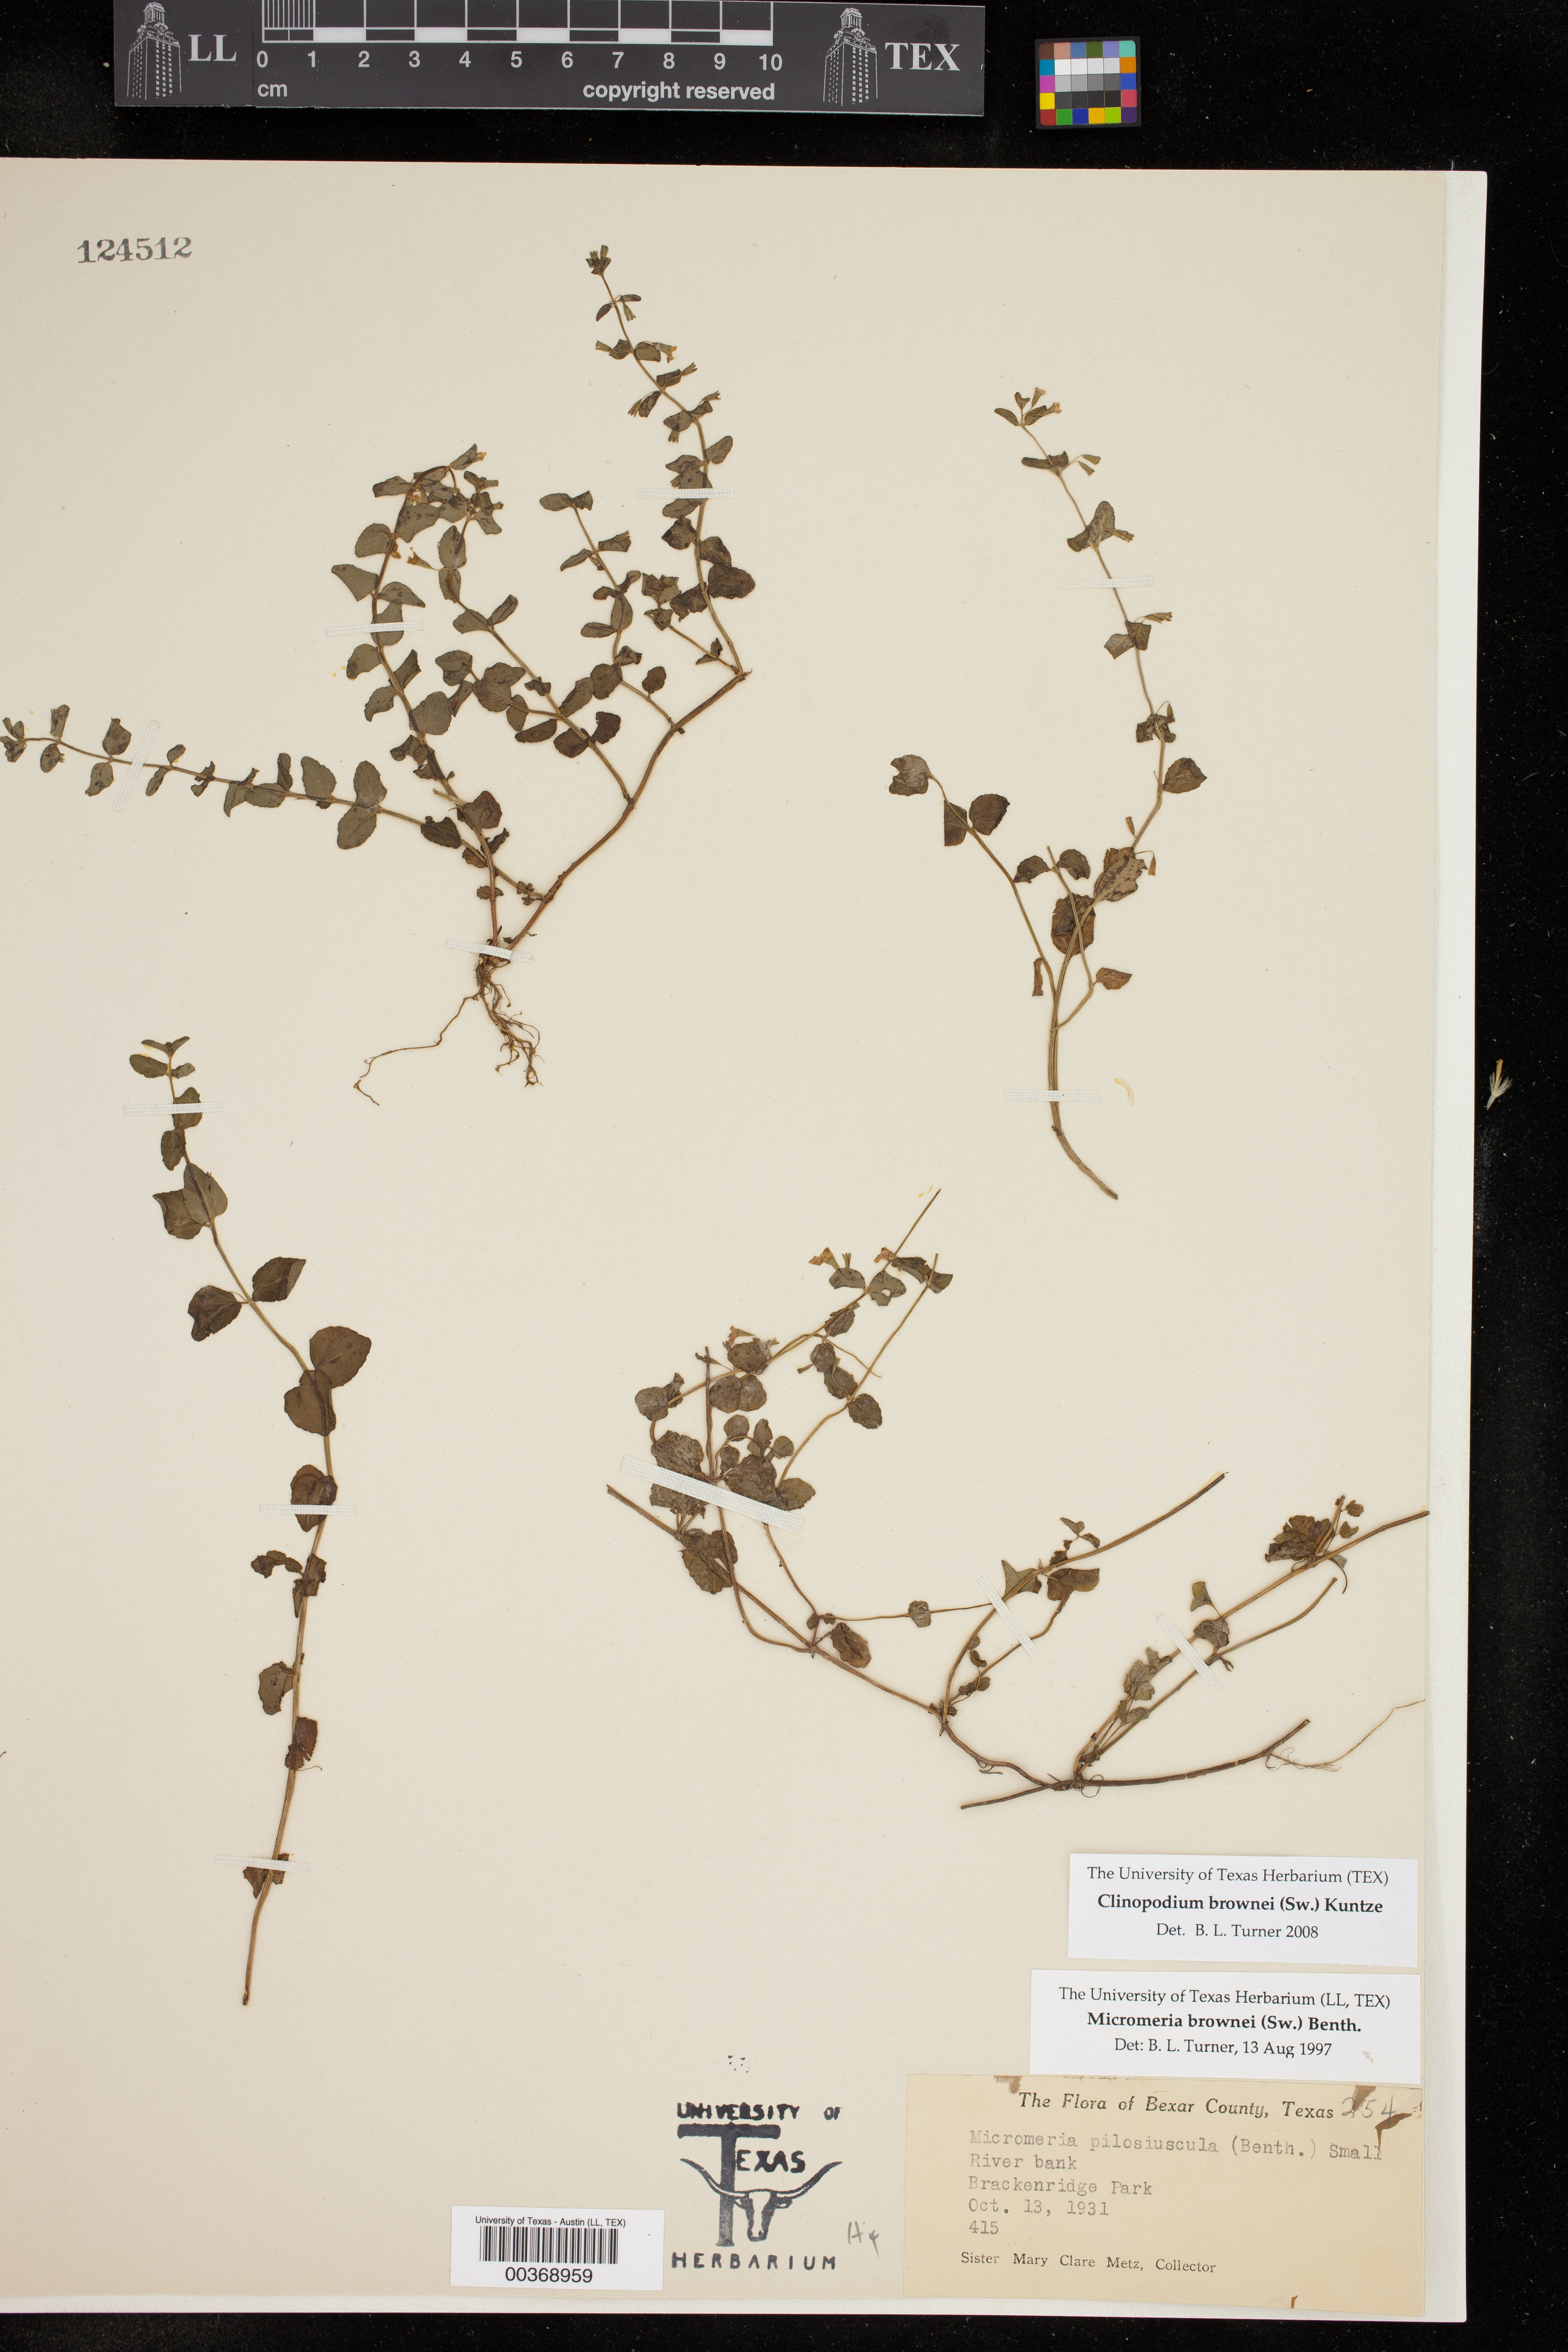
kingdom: Plantae
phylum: Tracheophyta
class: Magnoliopsida
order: Lamiales
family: Lamiaceae
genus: Clinopodium
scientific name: Clinopodium brownei
